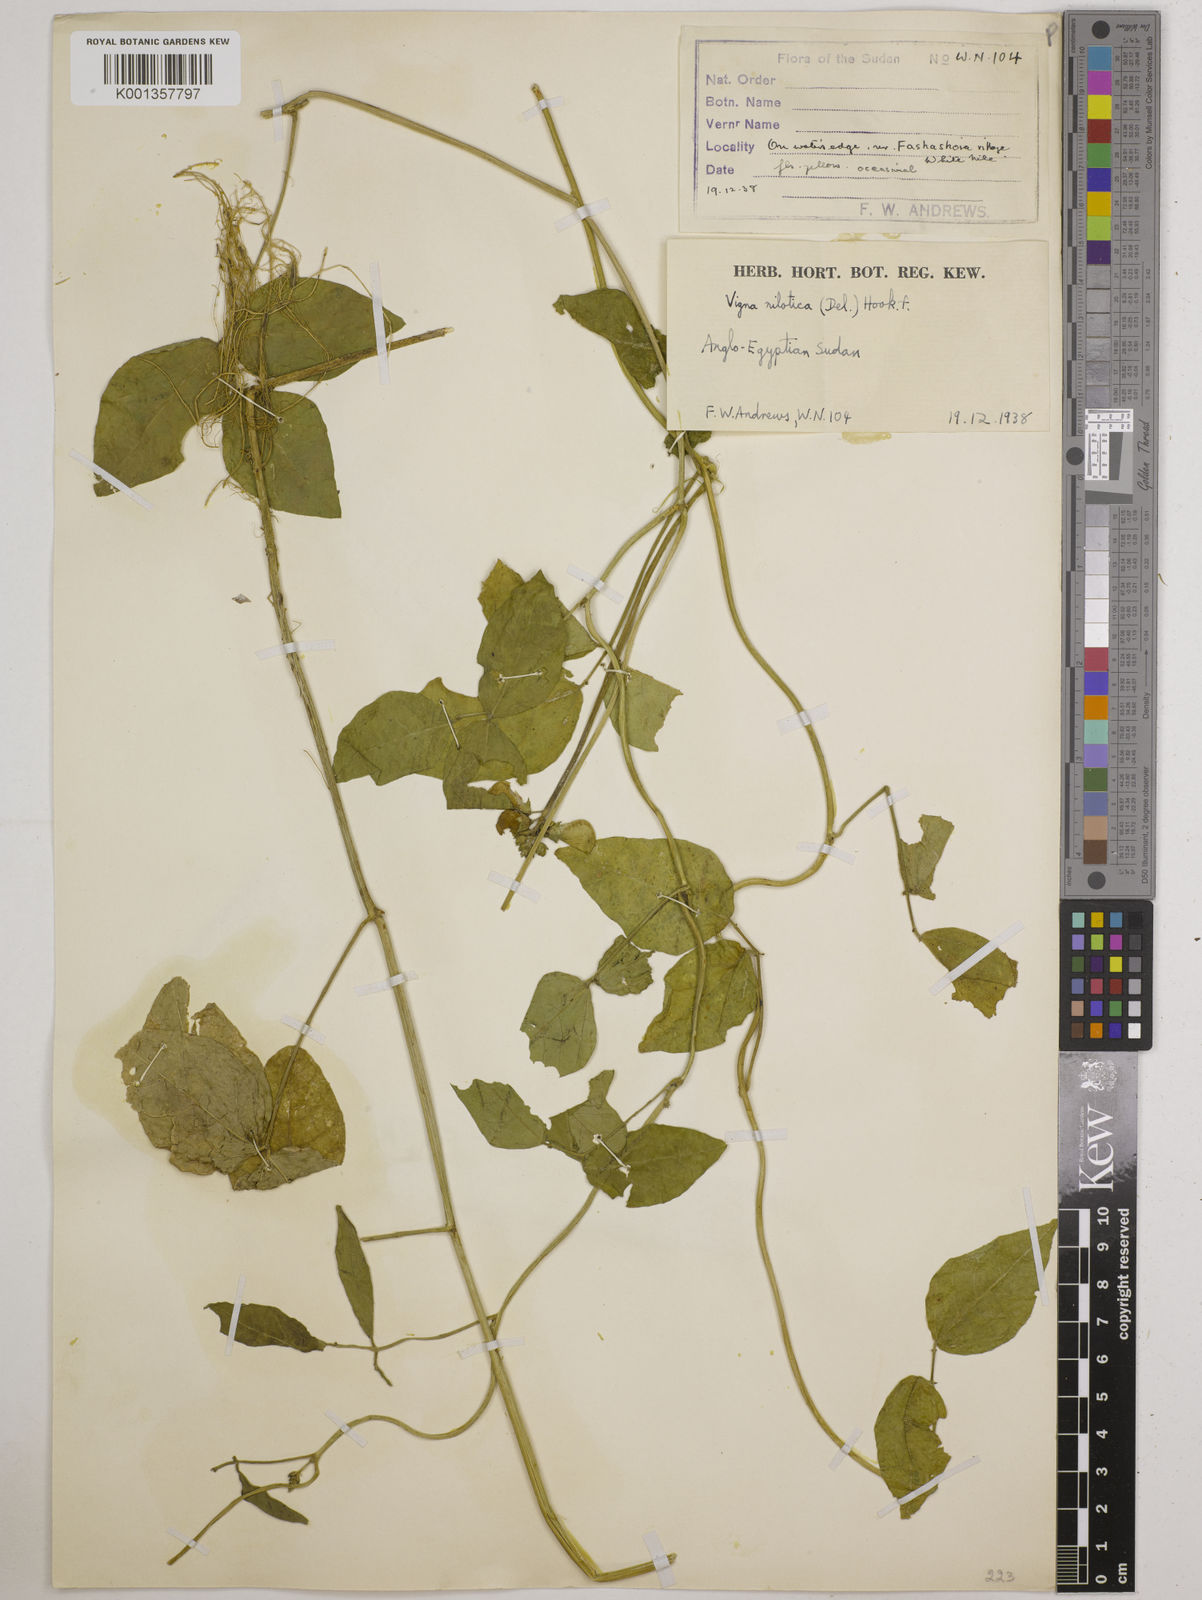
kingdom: Plantae
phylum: Tracheophyta
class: Magnoliopsida
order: Fabales
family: Fabaceae
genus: Vigna
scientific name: Vigna luteola
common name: Hairypod cowpea
